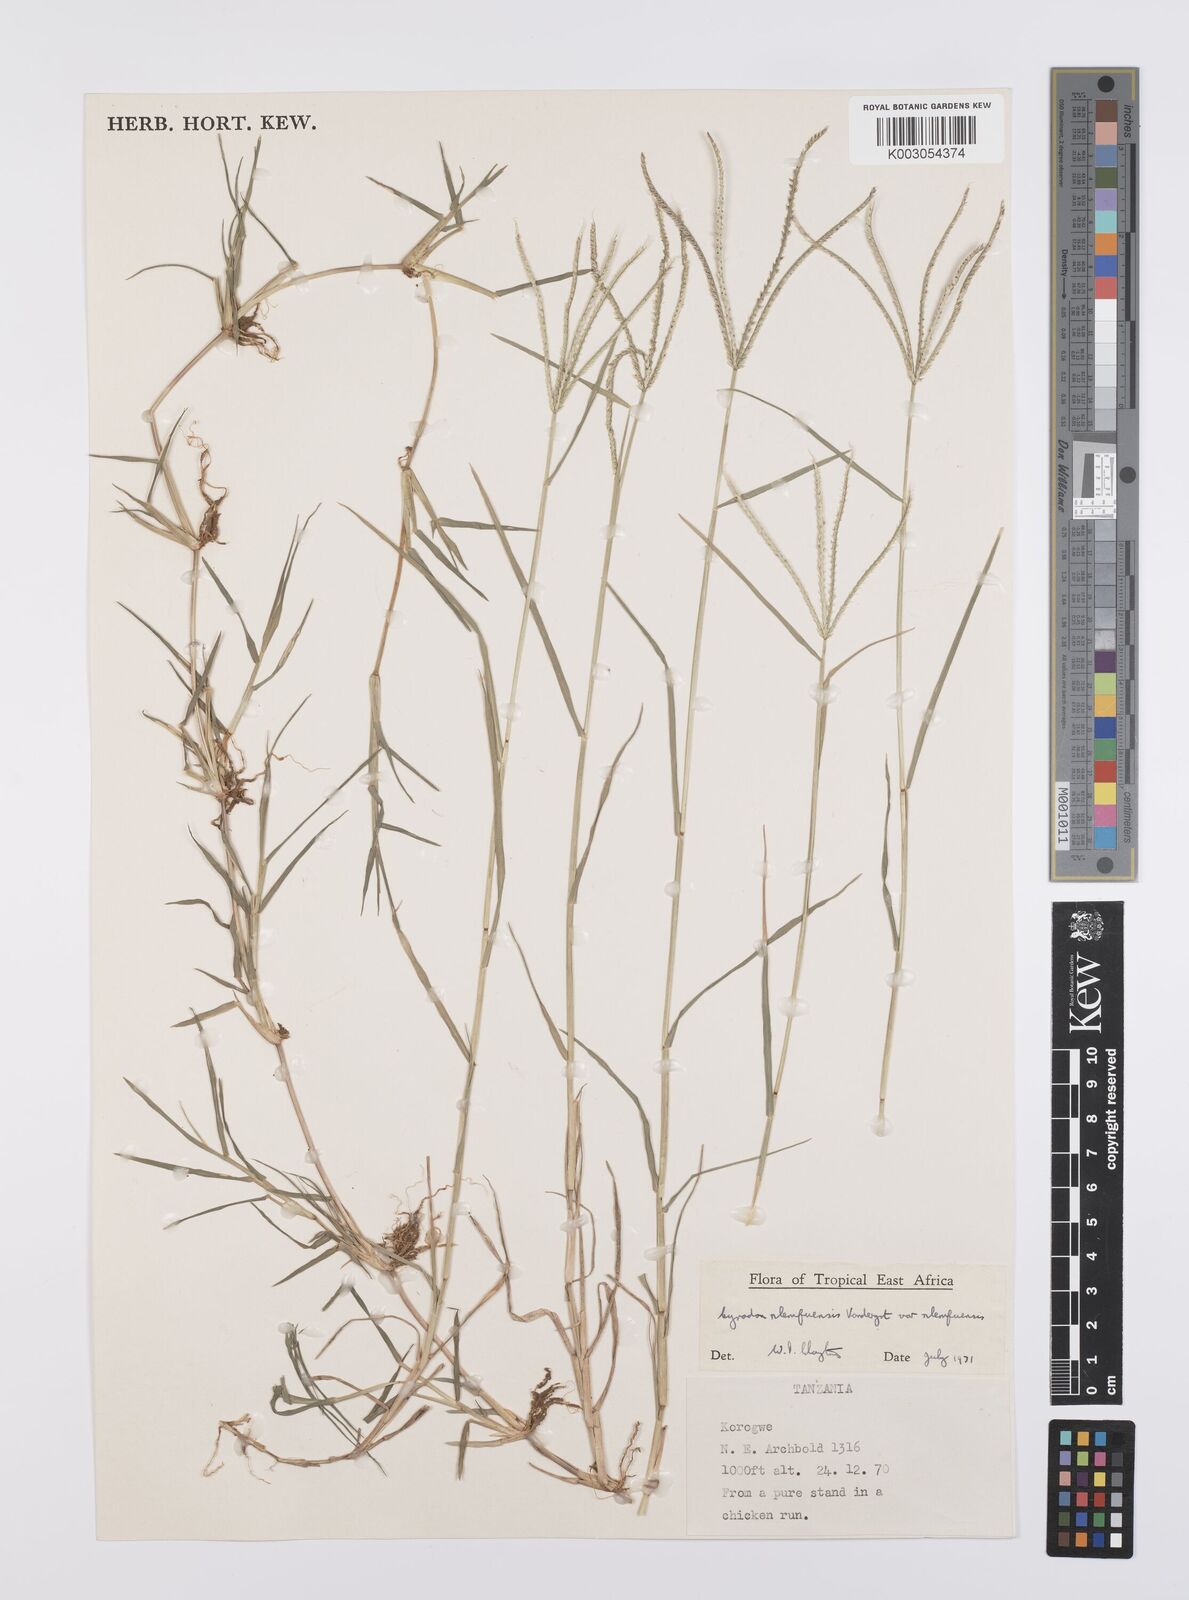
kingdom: Plantae
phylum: Tracheophyta
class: Liliopsida
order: Poales
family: Poaceae
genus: Cynodon
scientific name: Cynodon nlemfuensis
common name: African bermudagrass
